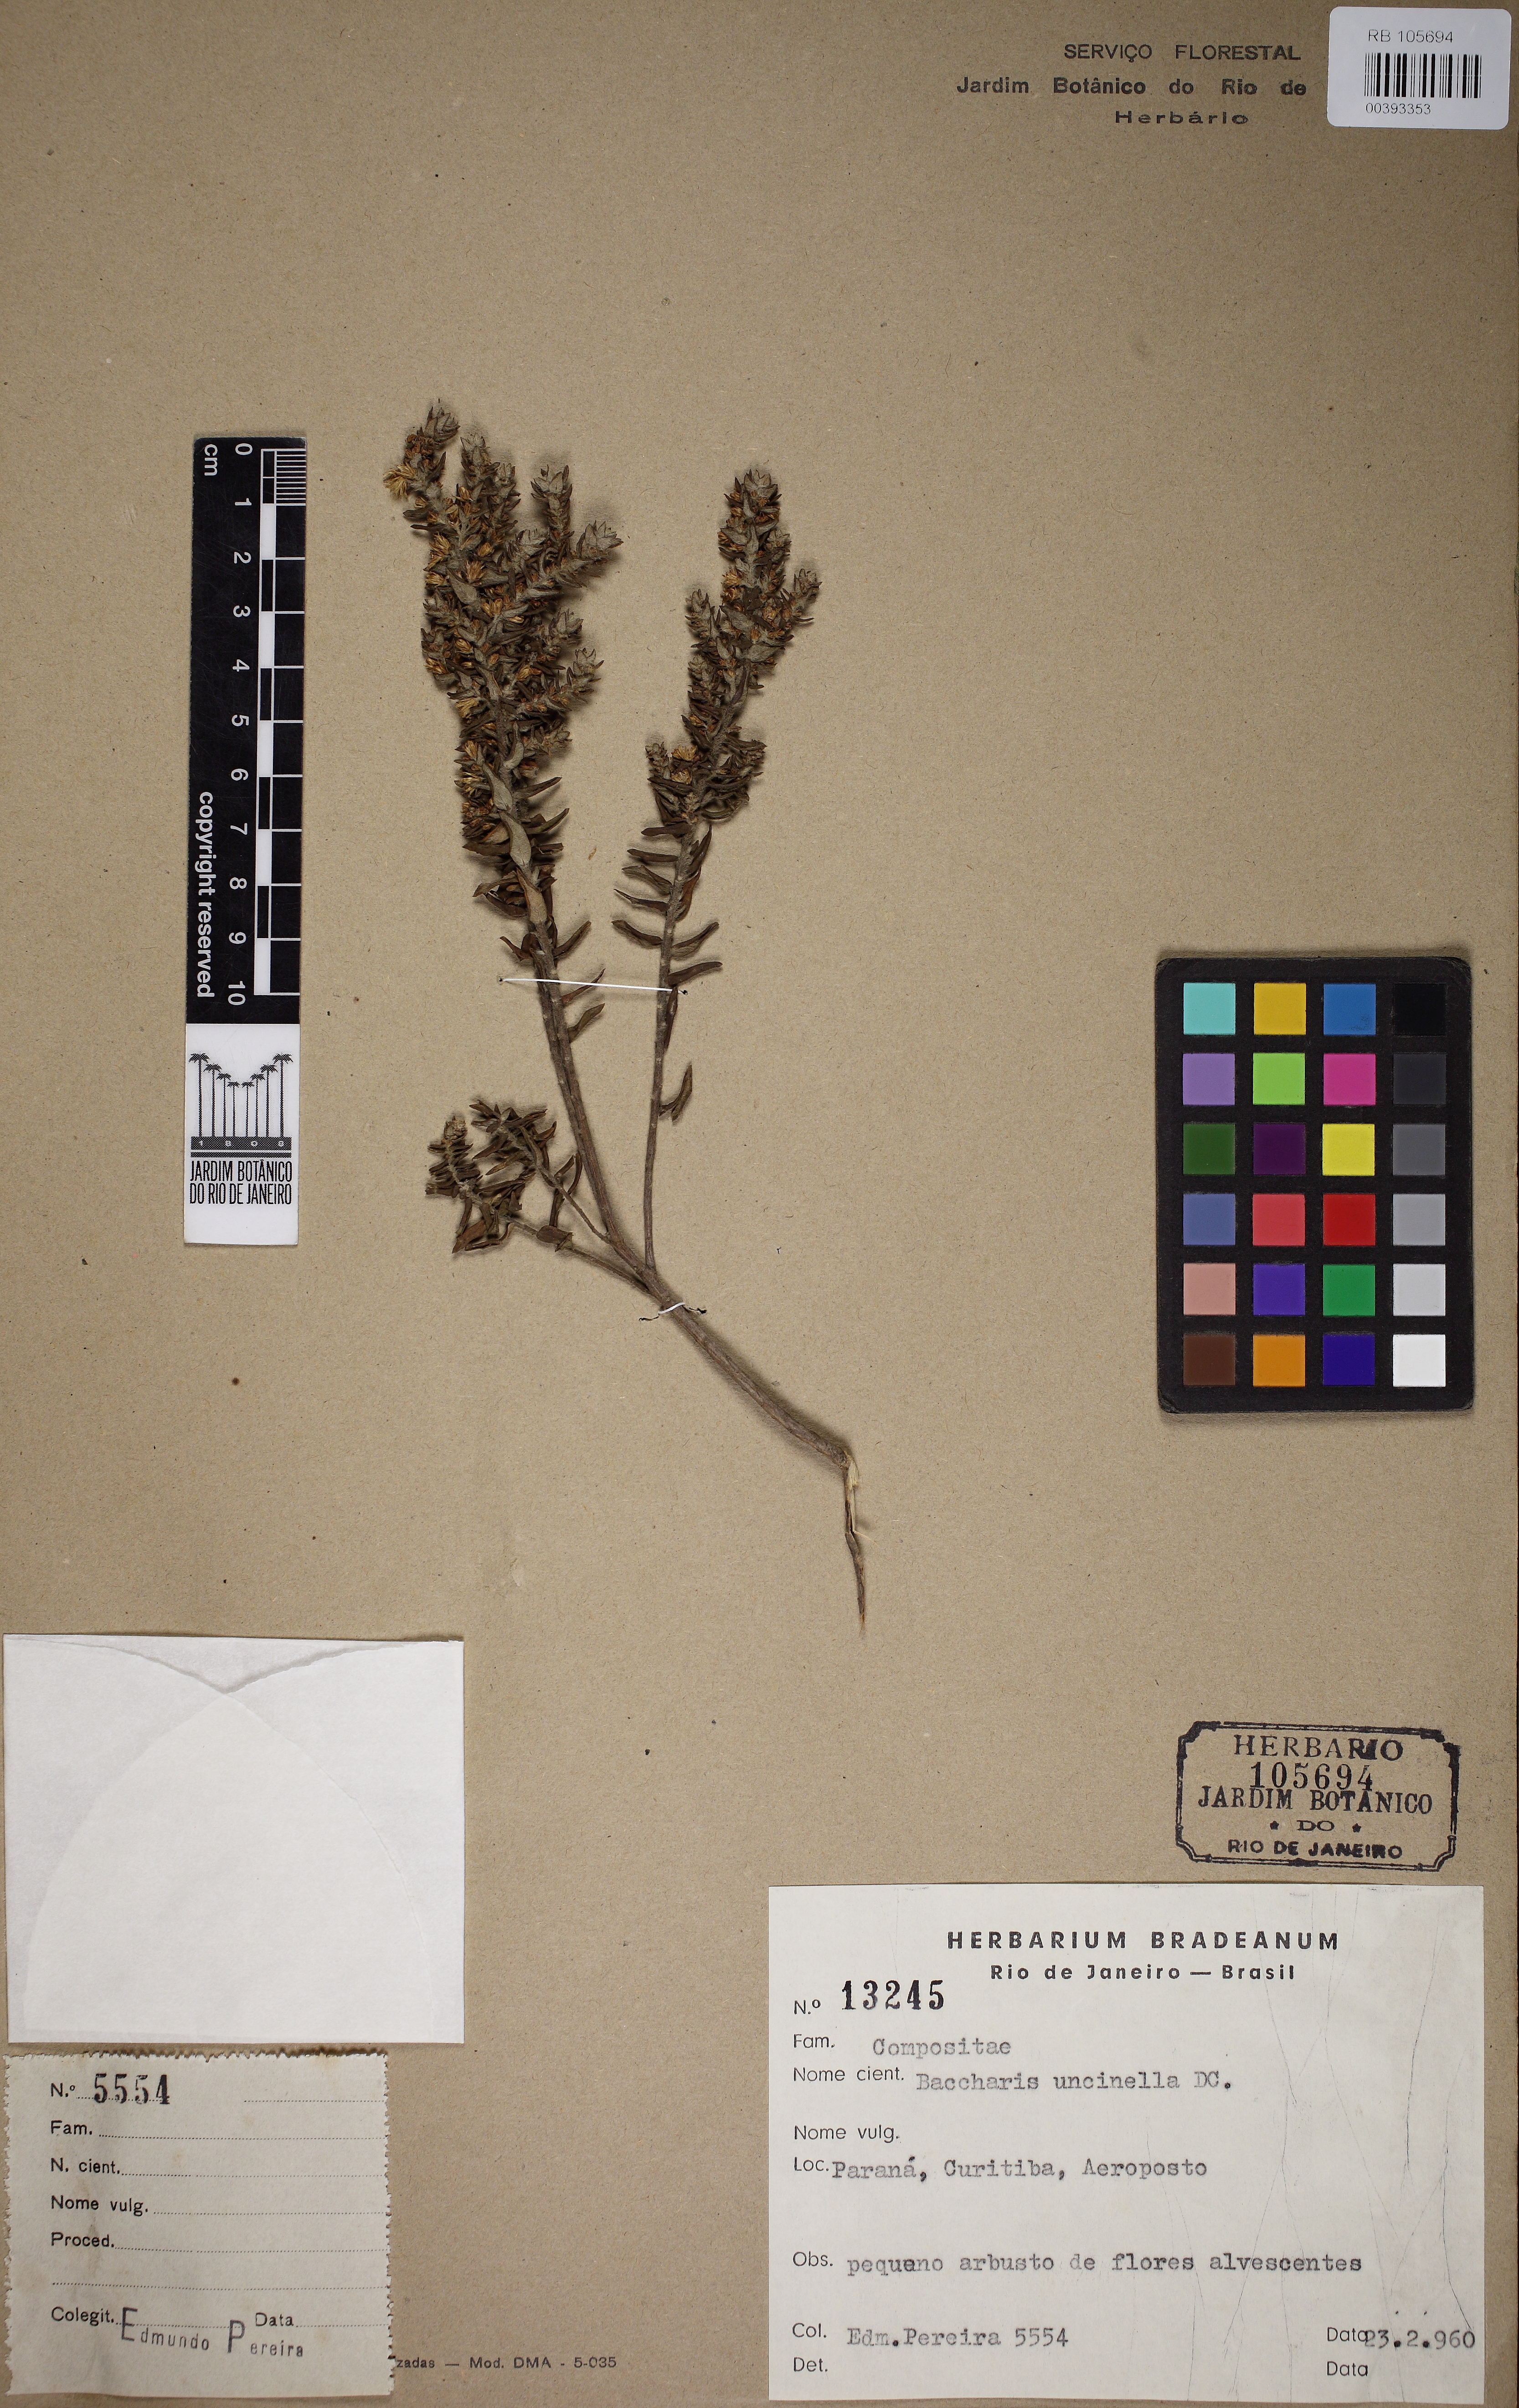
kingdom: Plantae
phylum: Tracheophyta
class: Magnoliopsida
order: Asterales
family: Asteraceae
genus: Baccharis
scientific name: Baccharis uncinella
